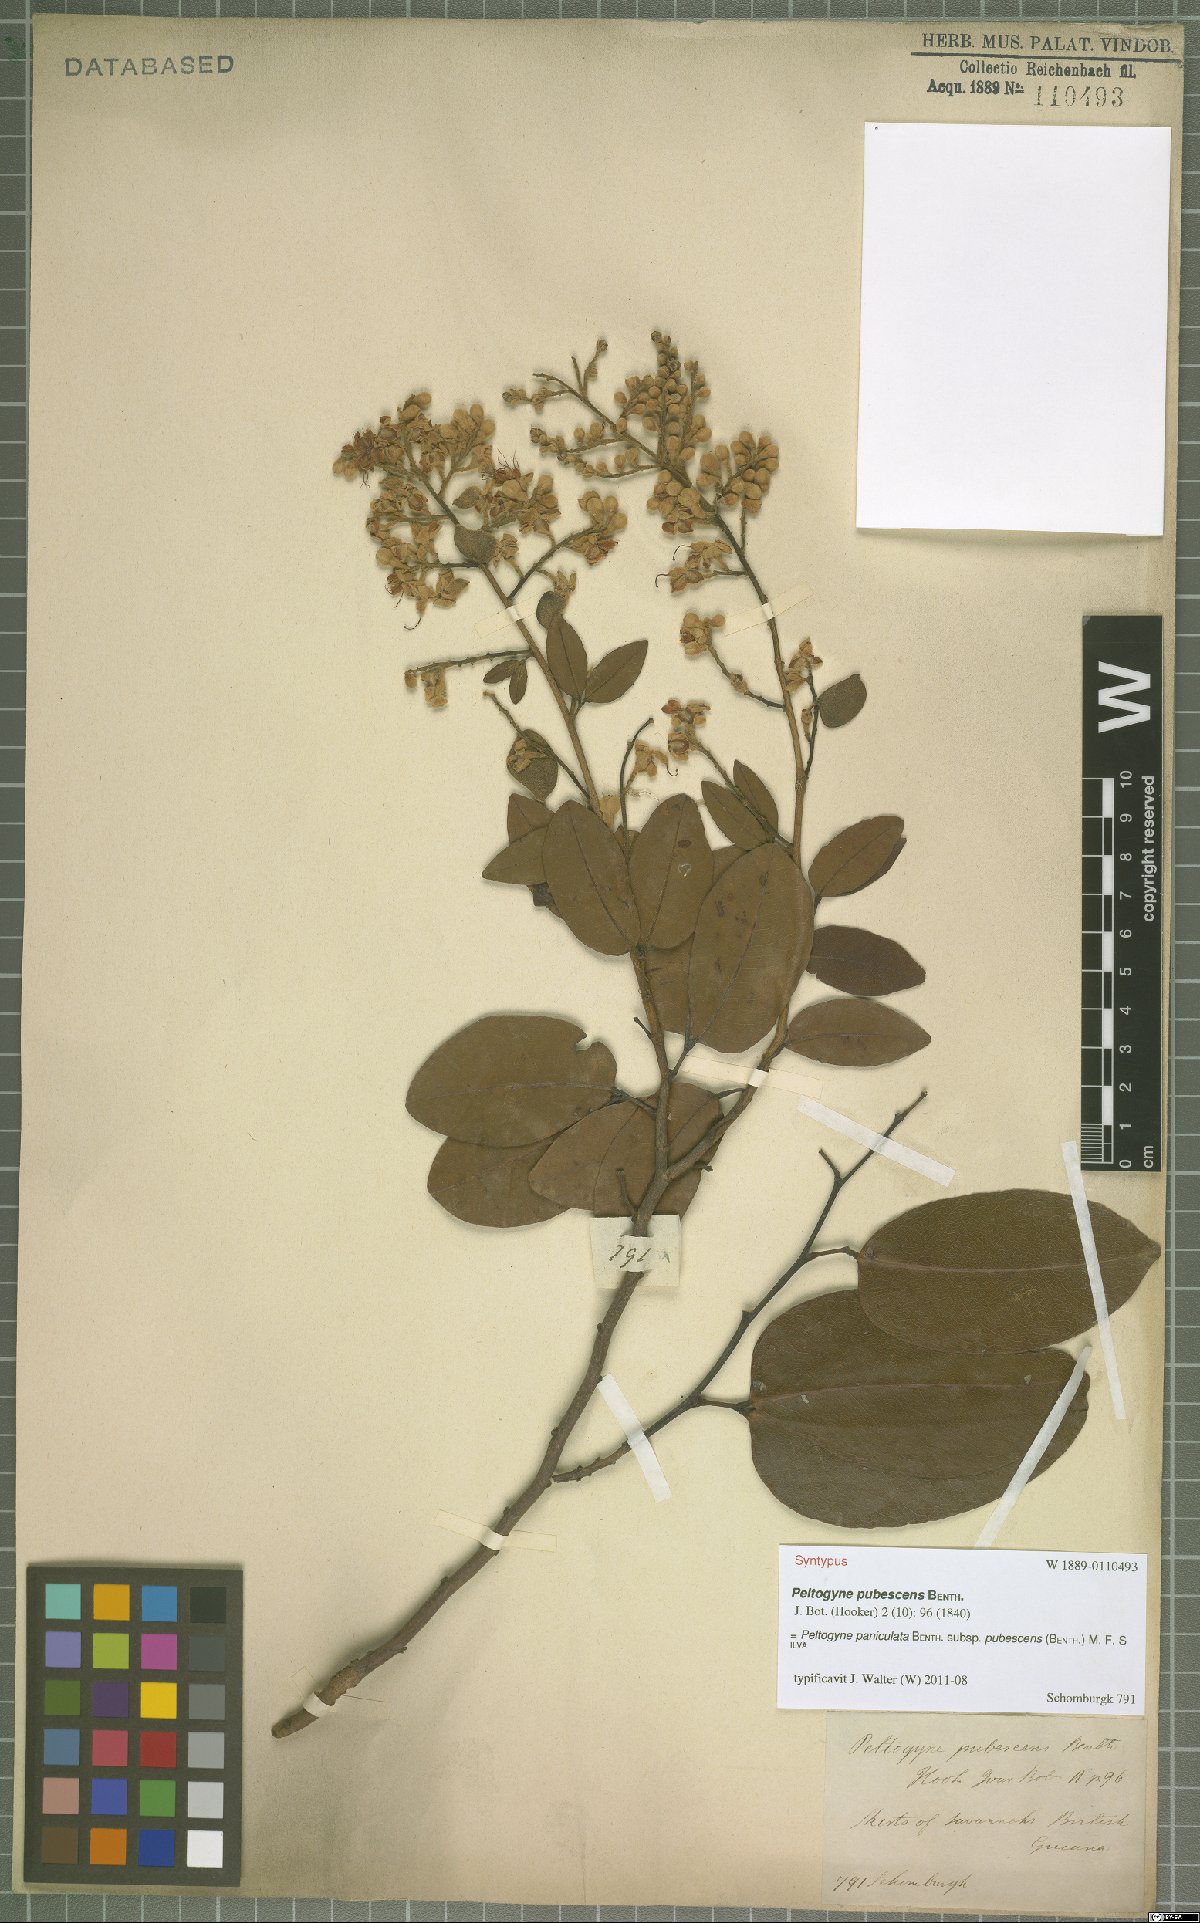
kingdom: Plantae
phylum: Tracheophyta
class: Magnoliopsida
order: Fabales
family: Fabaceae
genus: Peltogyne
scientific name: Peltogyne paniculata
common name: Purpleheart
